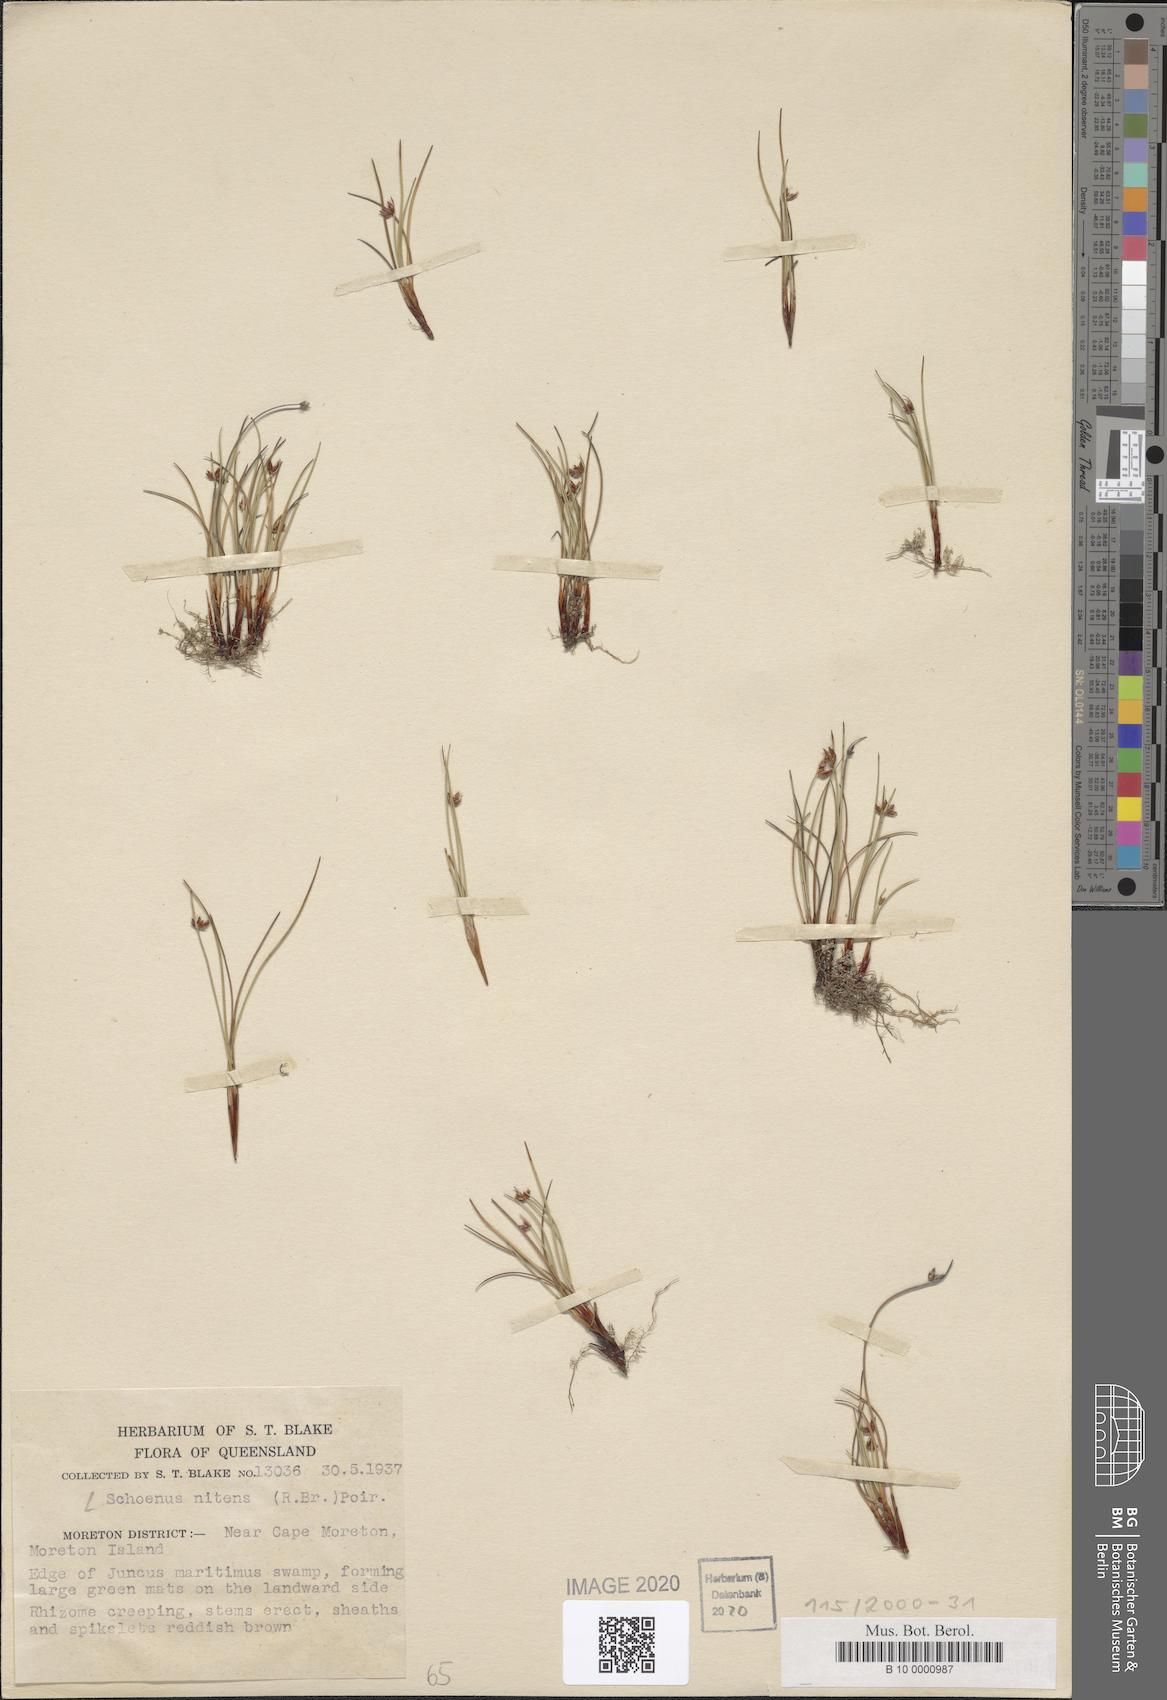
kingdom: Plantae
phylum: Tracheophyta
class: Liliopsida
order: Poales
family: Cyperaceae
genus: Schoenus
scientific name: Schoenus nitens
